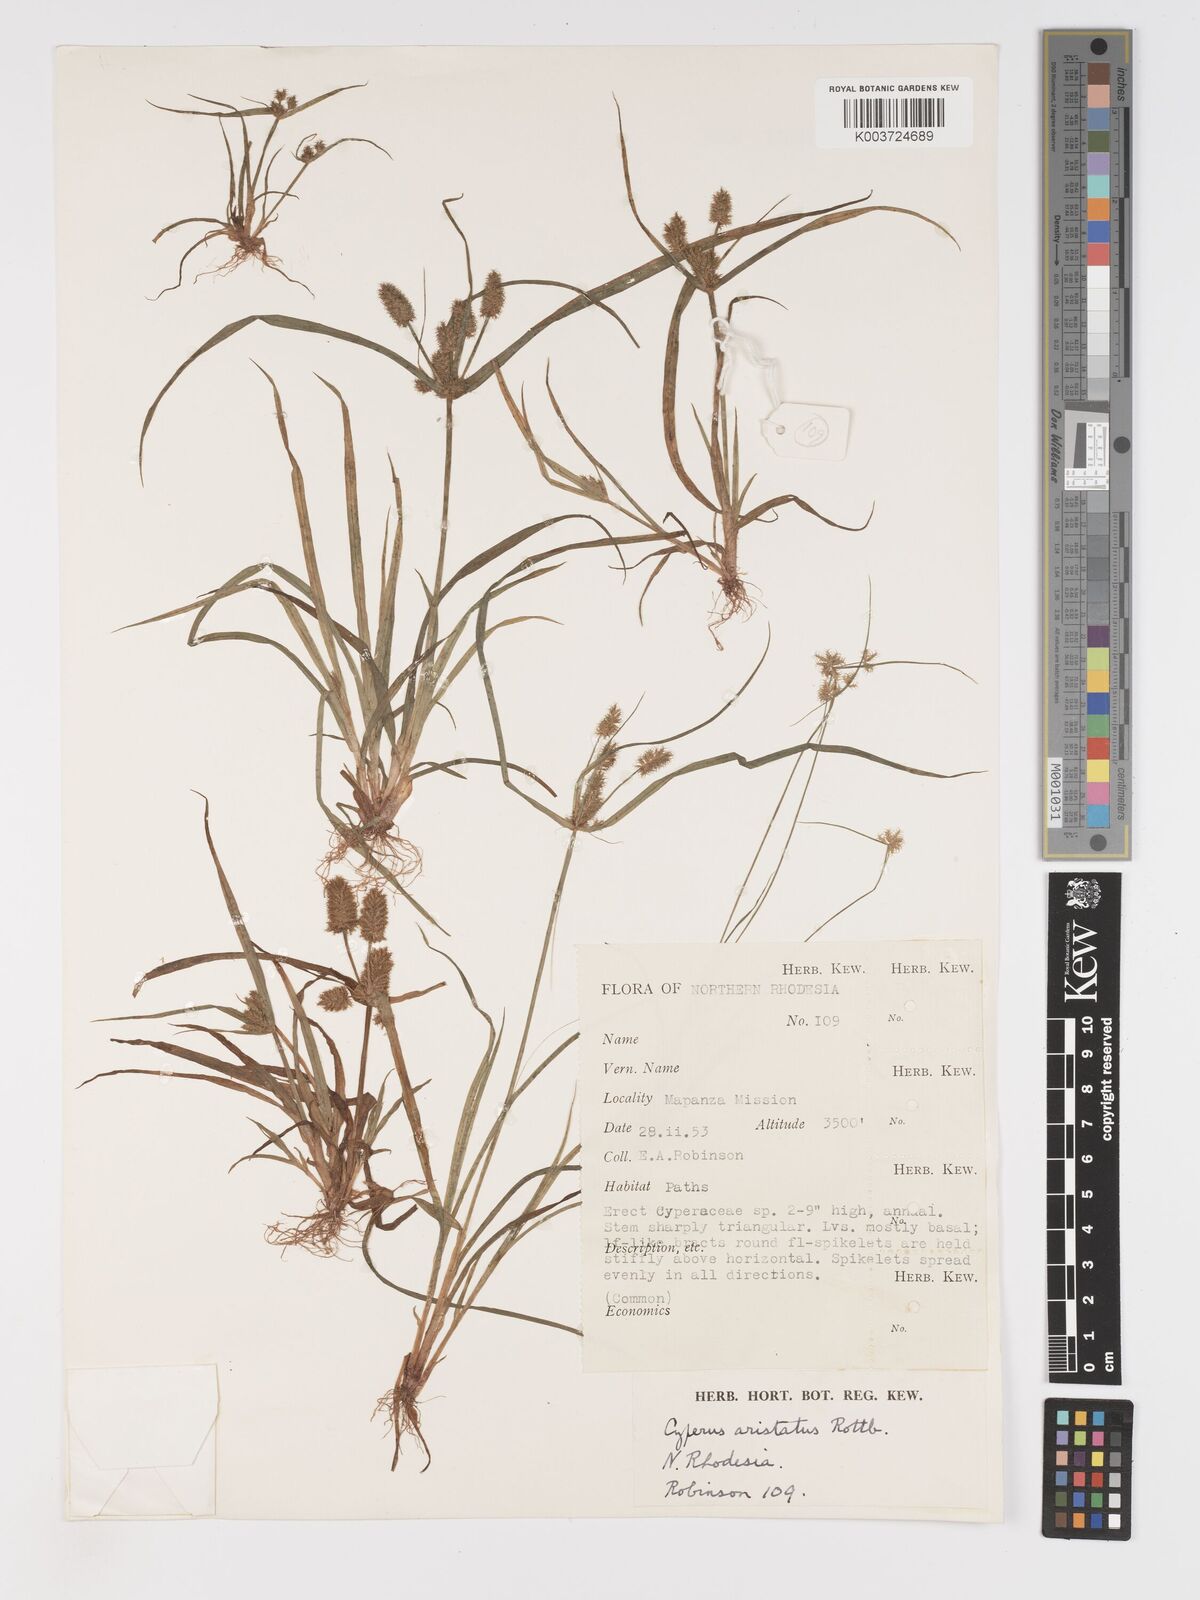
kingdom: Plantae
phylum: Tracheophyta
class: Liliopsida
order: Poales
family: Cyperaceae
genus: Cyperus
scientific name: Cyperus squarrosus
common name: Awned cyperus
